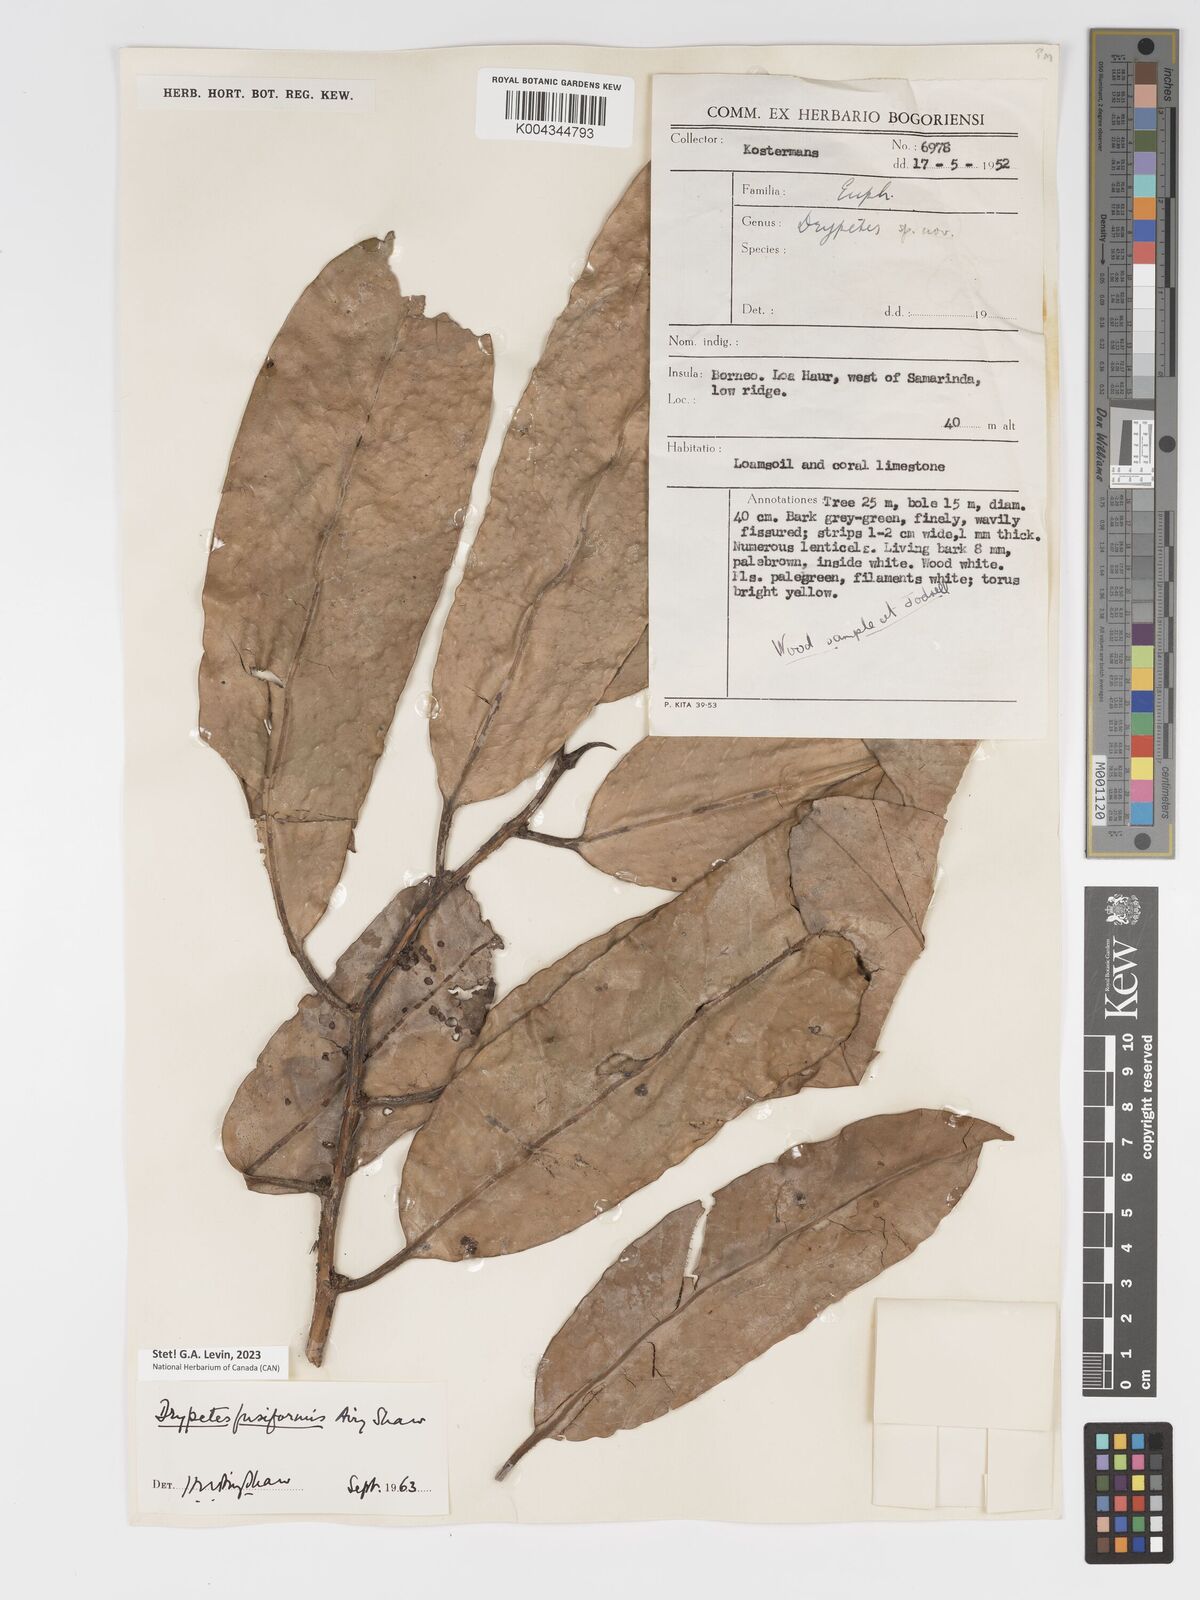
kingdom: Plantae
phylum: Tracheophyta
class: Magnoliopsida
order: Malpighiales
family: Putranjivaceae
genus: Drypetes
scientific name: Drypetes fusiformis
